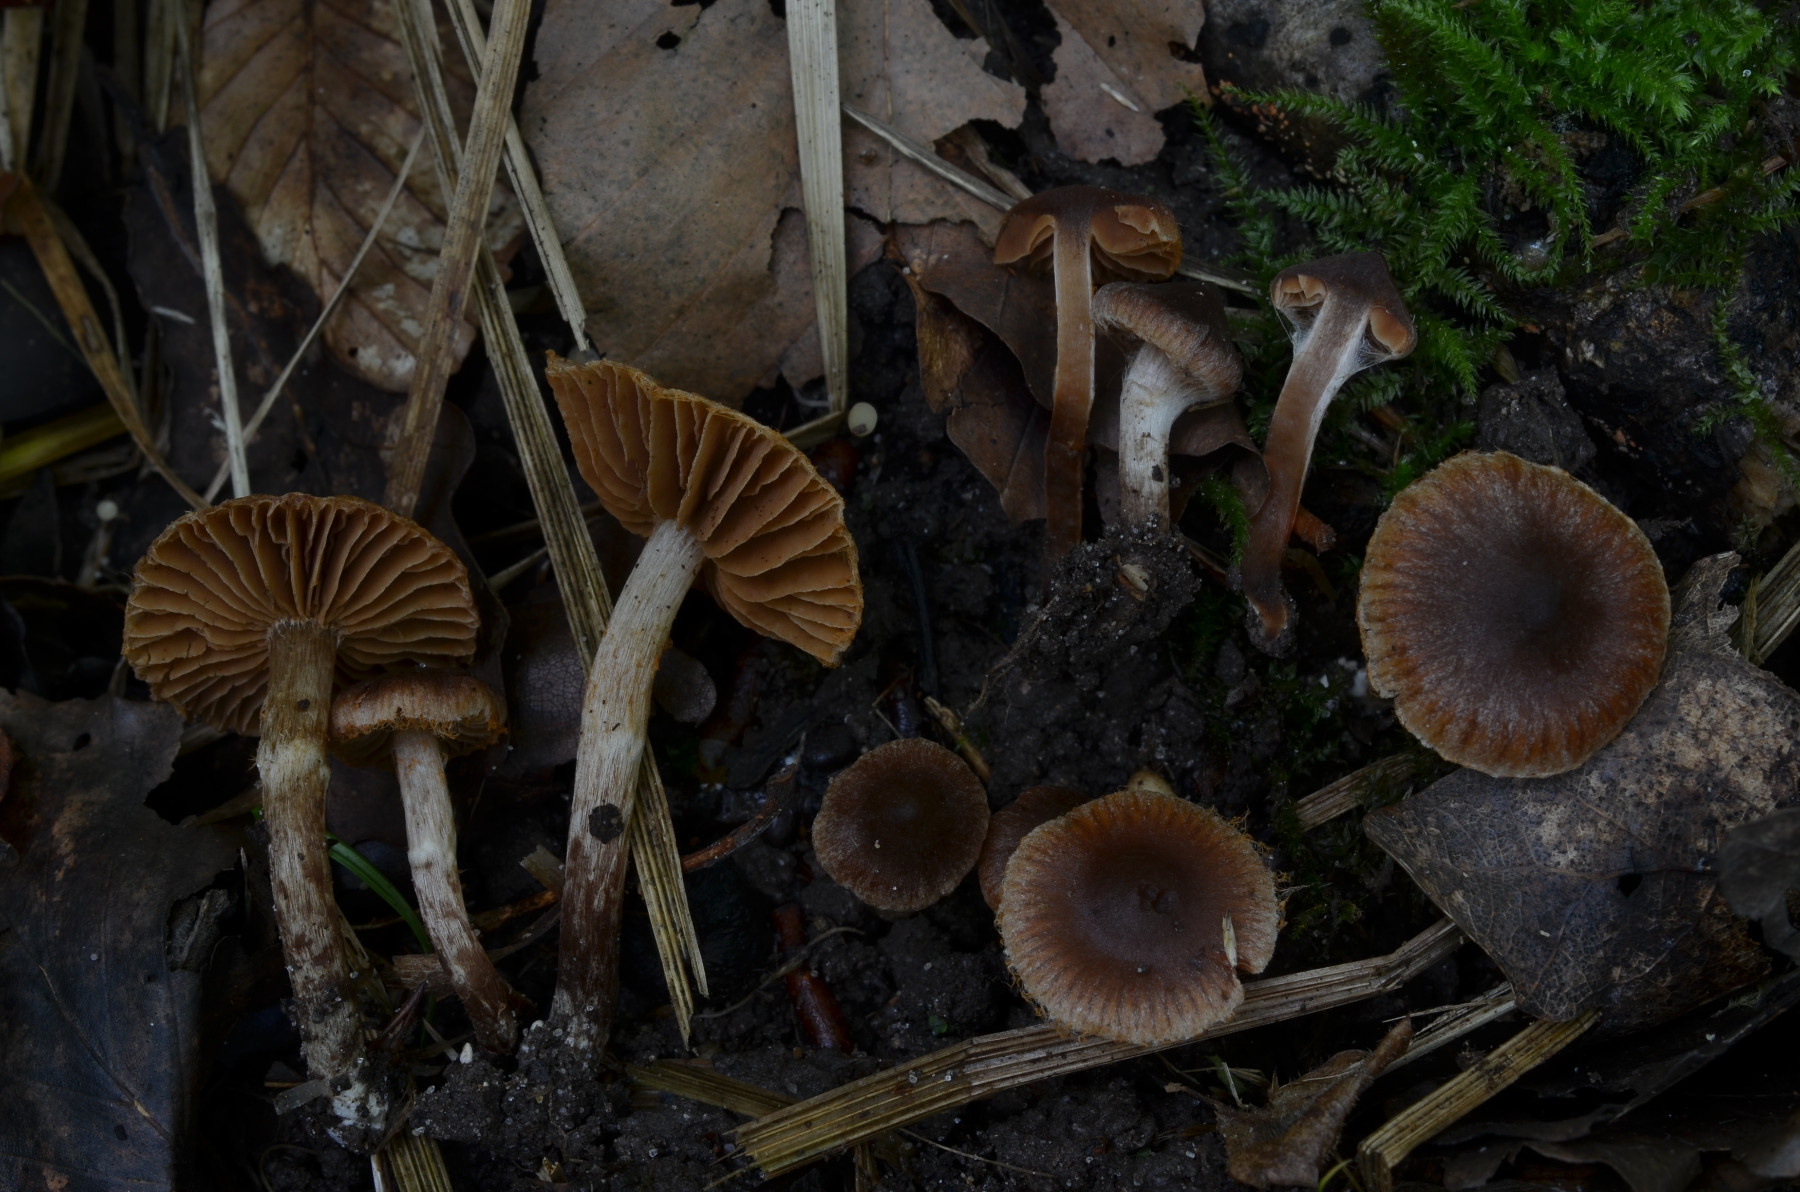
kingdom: Fungi
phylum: Basidiomycota
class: Agaricomycetes
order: Agaricales
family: Cortinariaceae
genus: Cortinarius
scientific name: Cortinarius pseudofusisporus
